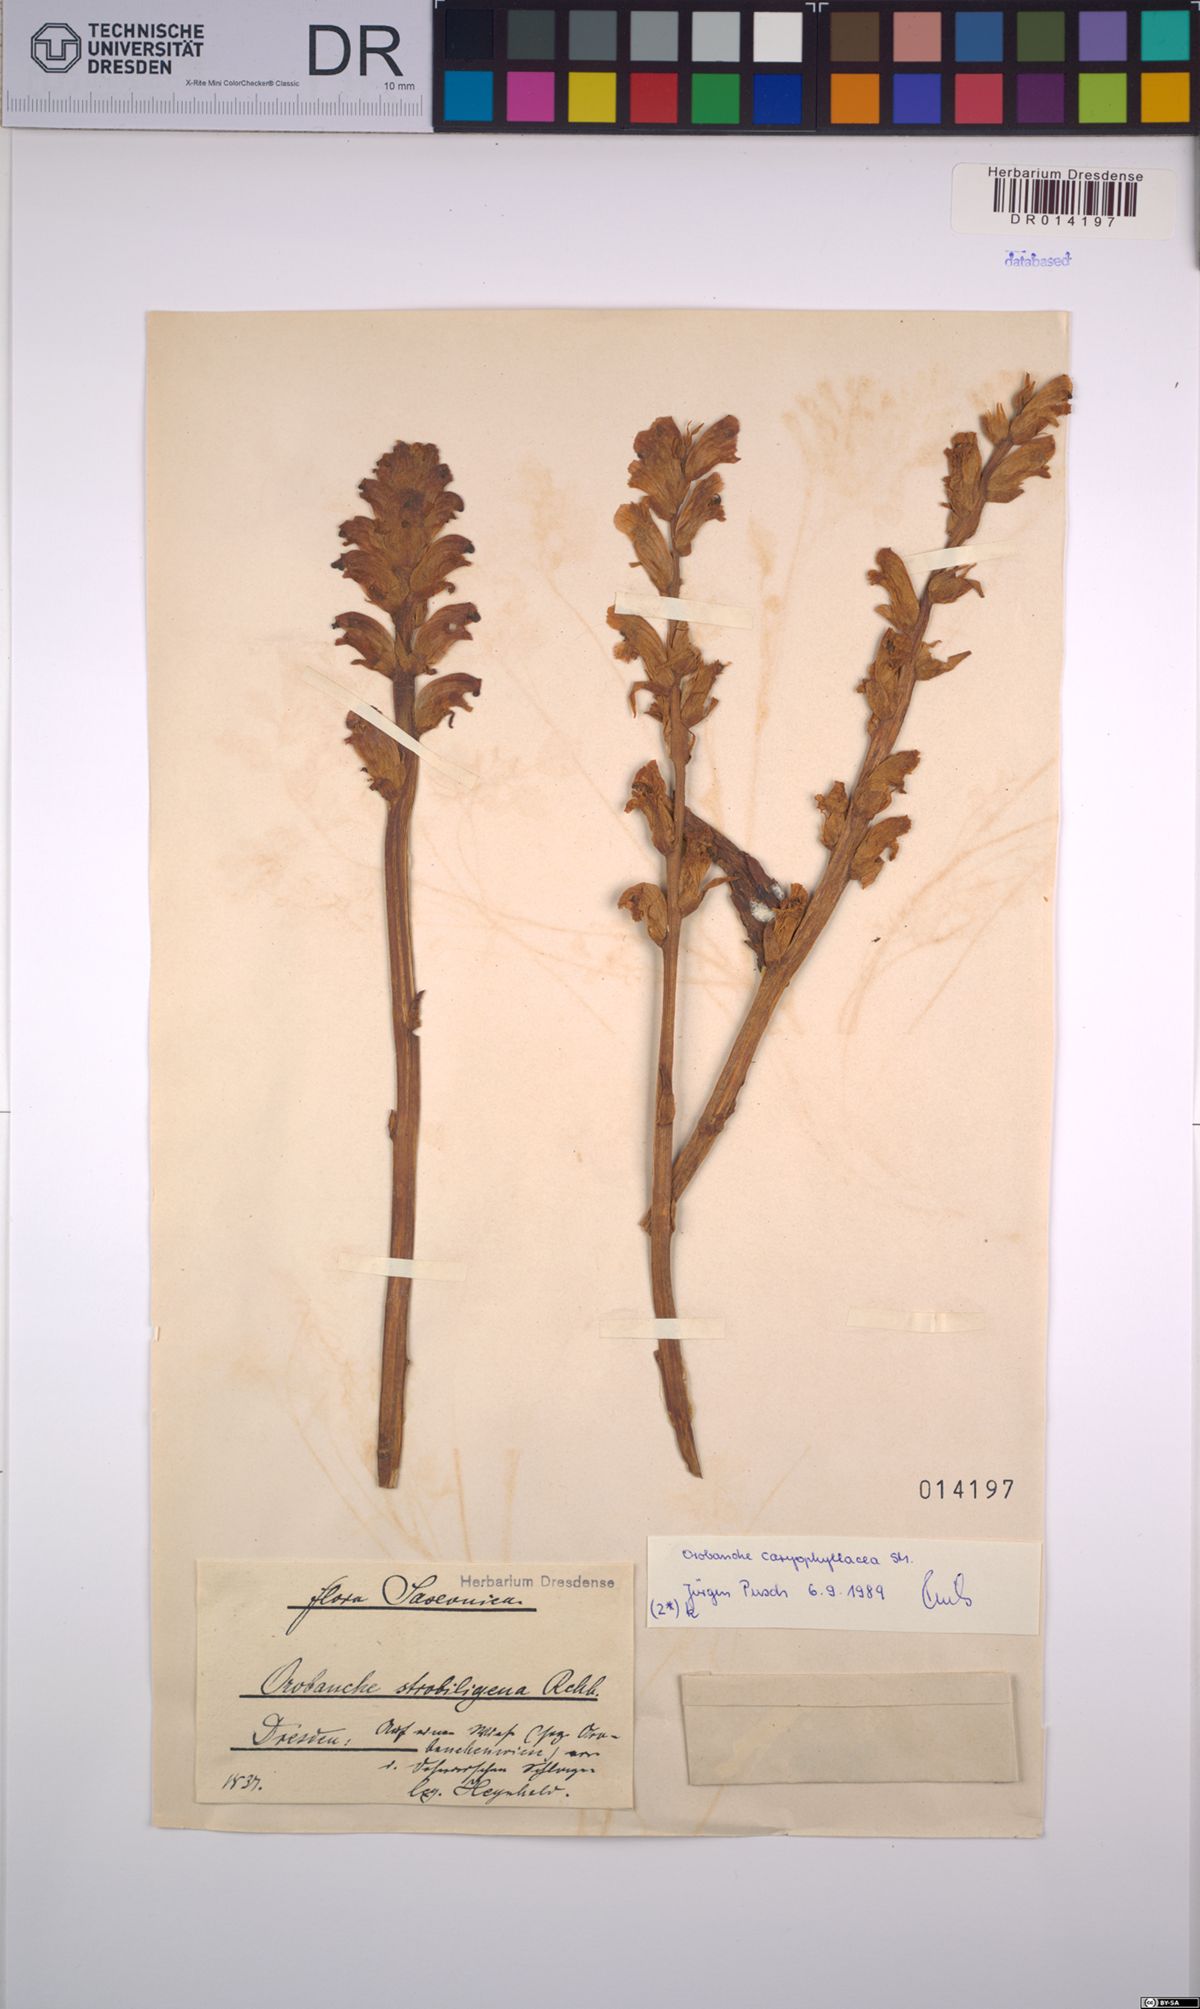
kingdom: Plantae
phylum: Tracheophyta
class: Magnoliopsida
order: Lamiales
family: Orobanchaceae
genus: Orobanche
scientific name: Orobanche caryophyllacea
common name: Bedstraw broomrape
